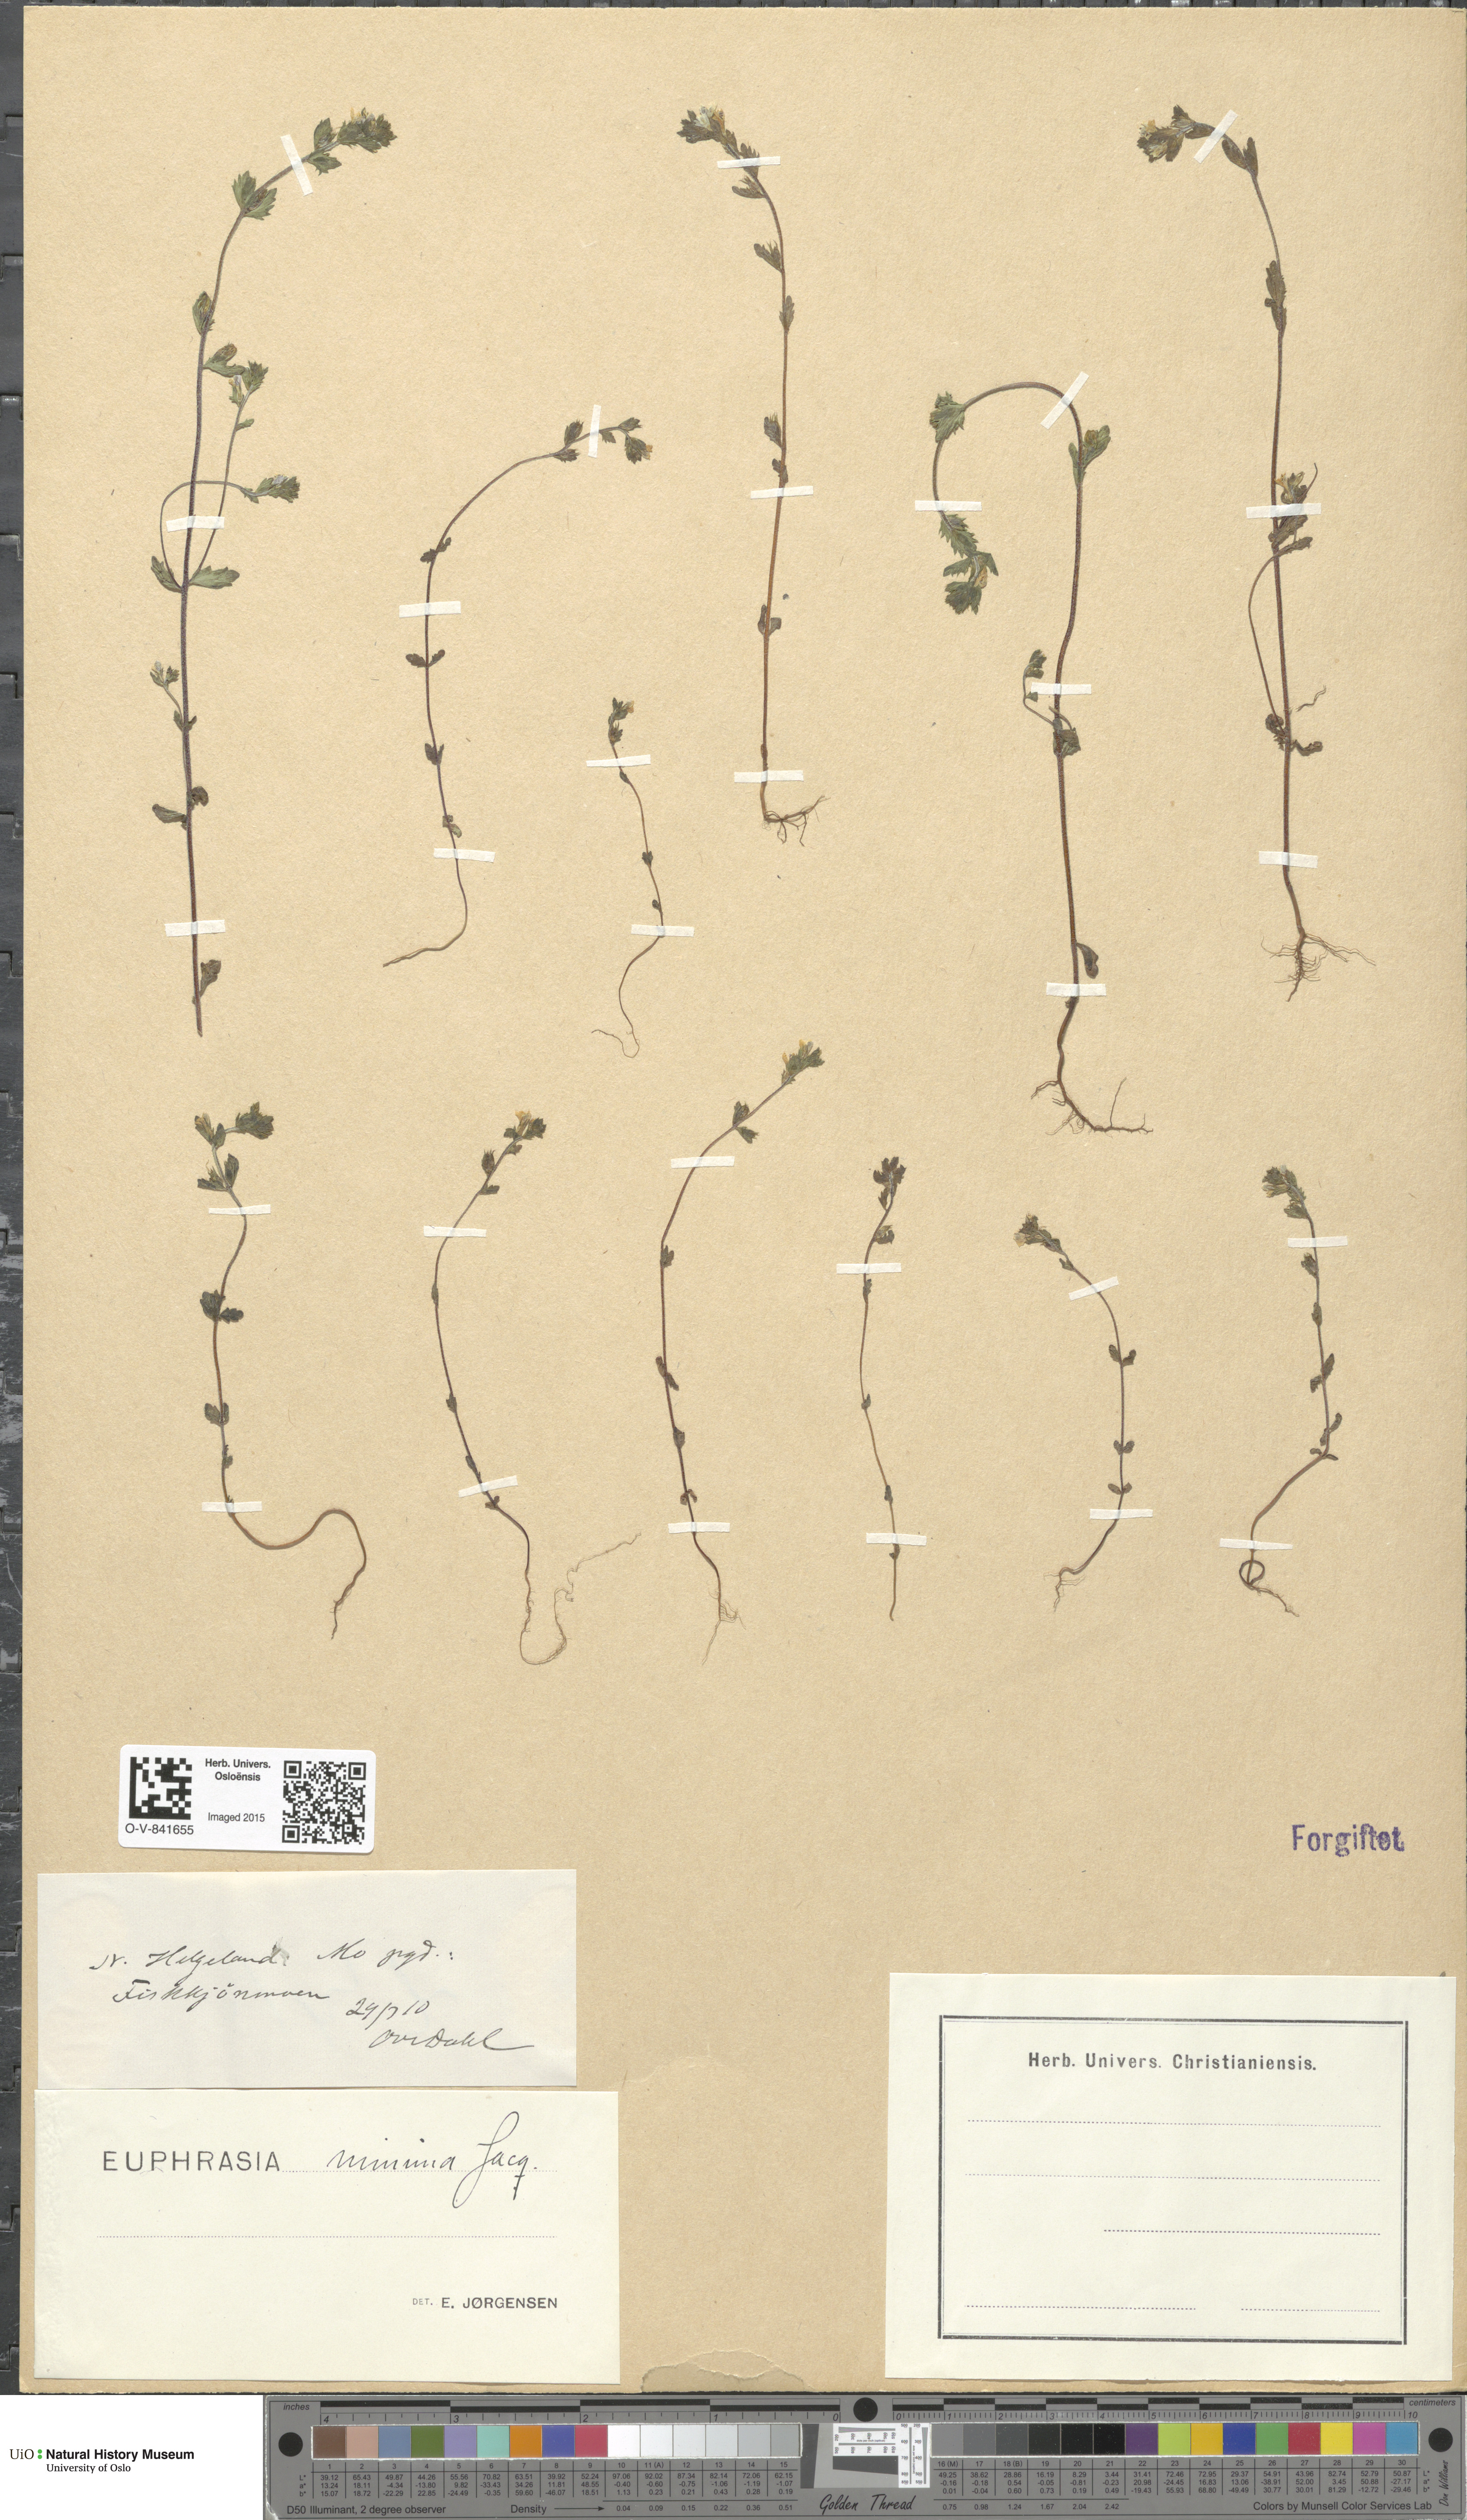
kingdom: Plantae
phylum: Tracheophyta
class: Magnoliopsida
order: Lamiales
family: Orobanchaceae
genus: Euphrasia
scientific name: Euphrasia wettsteinii
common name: Wettstein's eyebright
